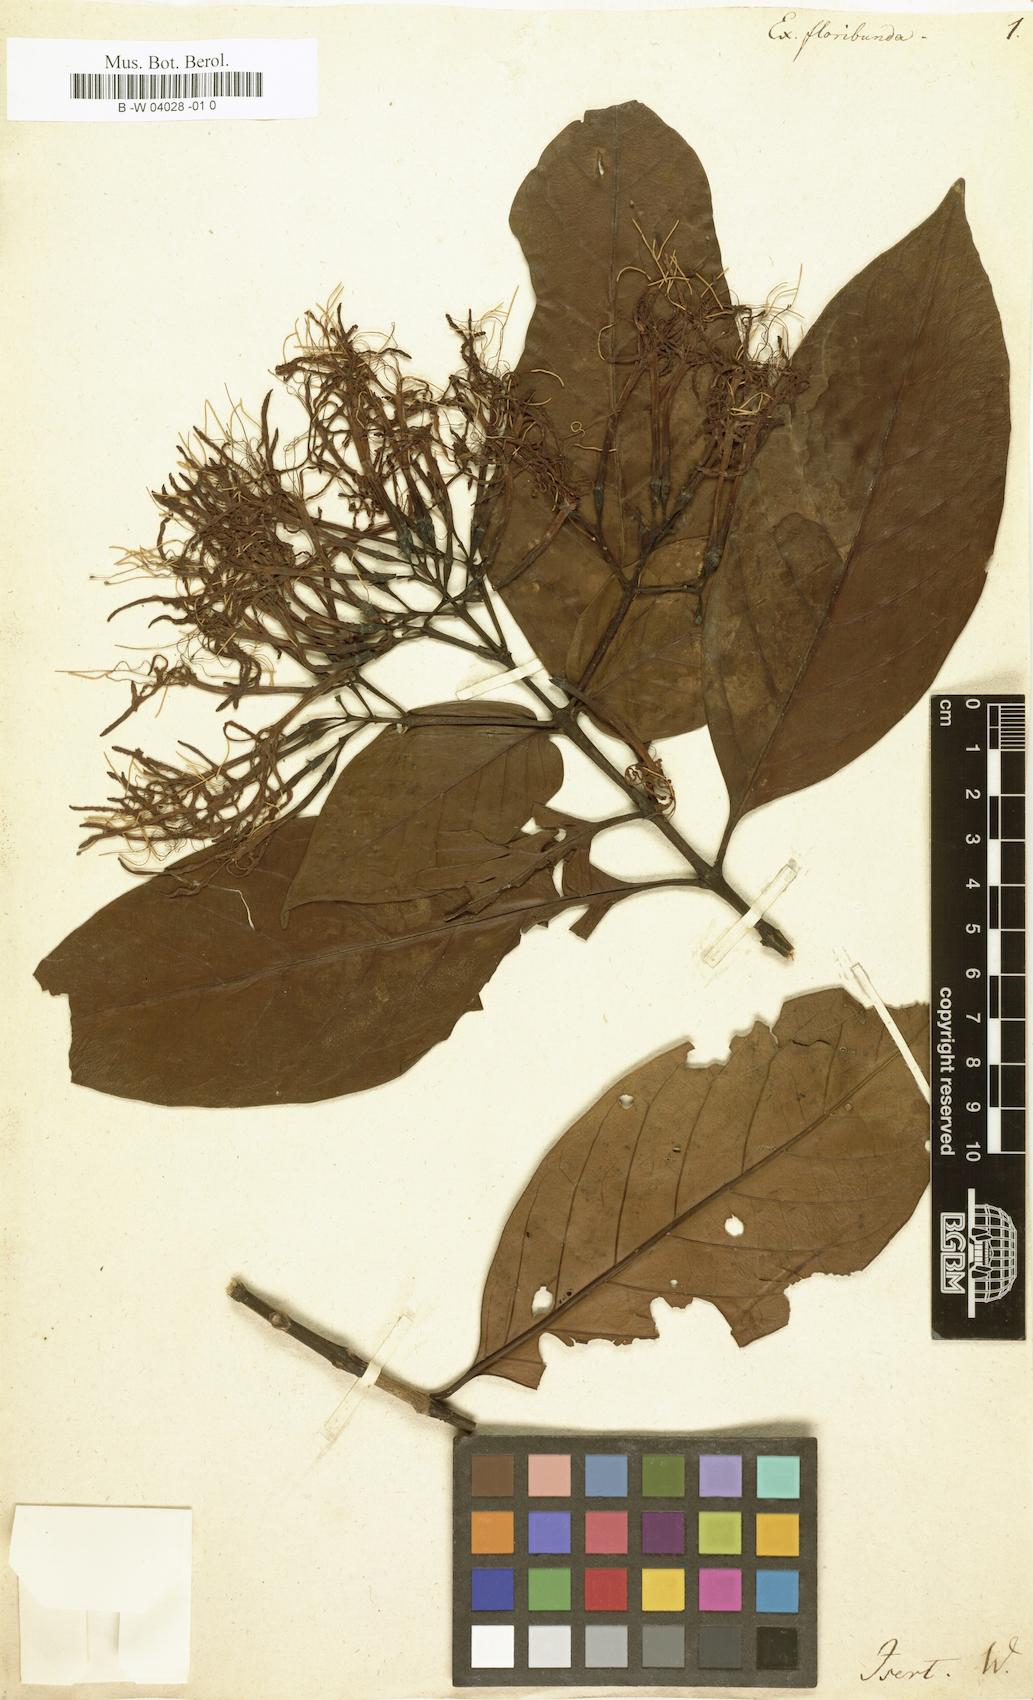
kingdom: Plantae
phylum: Tracheophyta
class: Magnoliopsida
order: Gentianales
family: Rubiaceae
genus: Solenandra
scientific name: Solenandra sanctae-luciae
